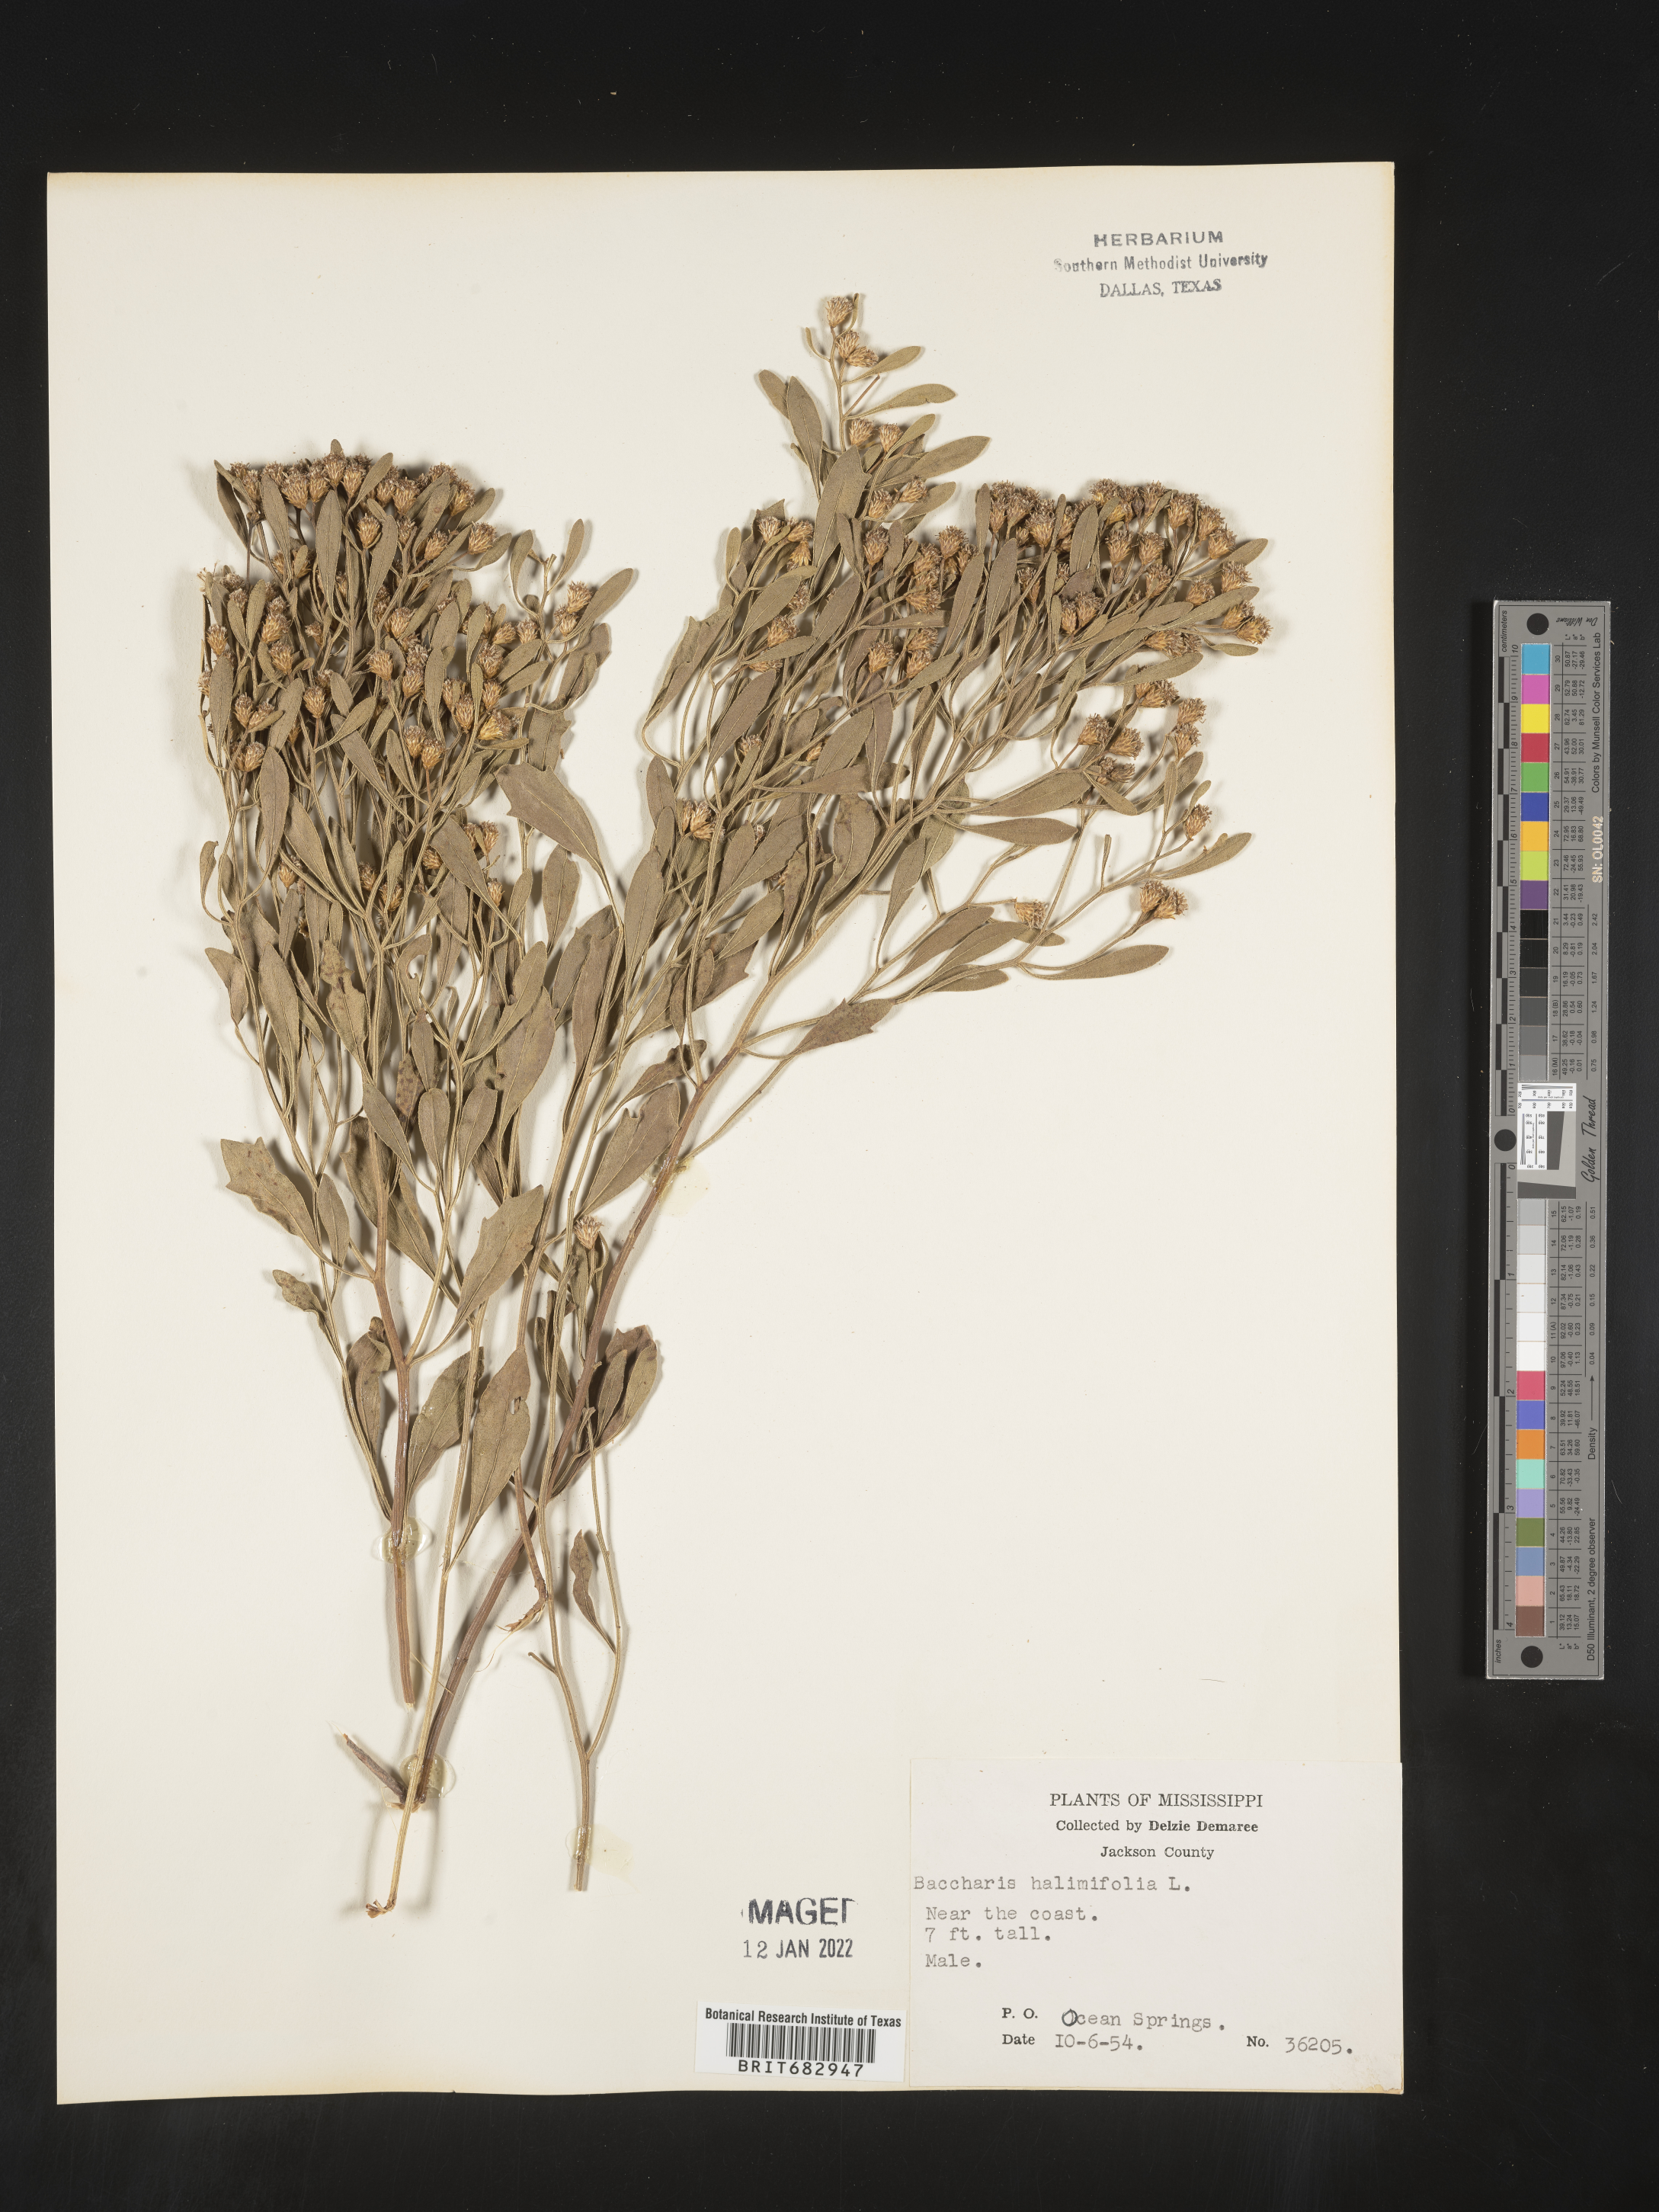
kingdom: Plantae
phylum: Tracheophyta
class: Magnoliopsida
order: Asterales
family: Asteraceae
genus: Nidorella
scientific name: Nidorella ivifolia
